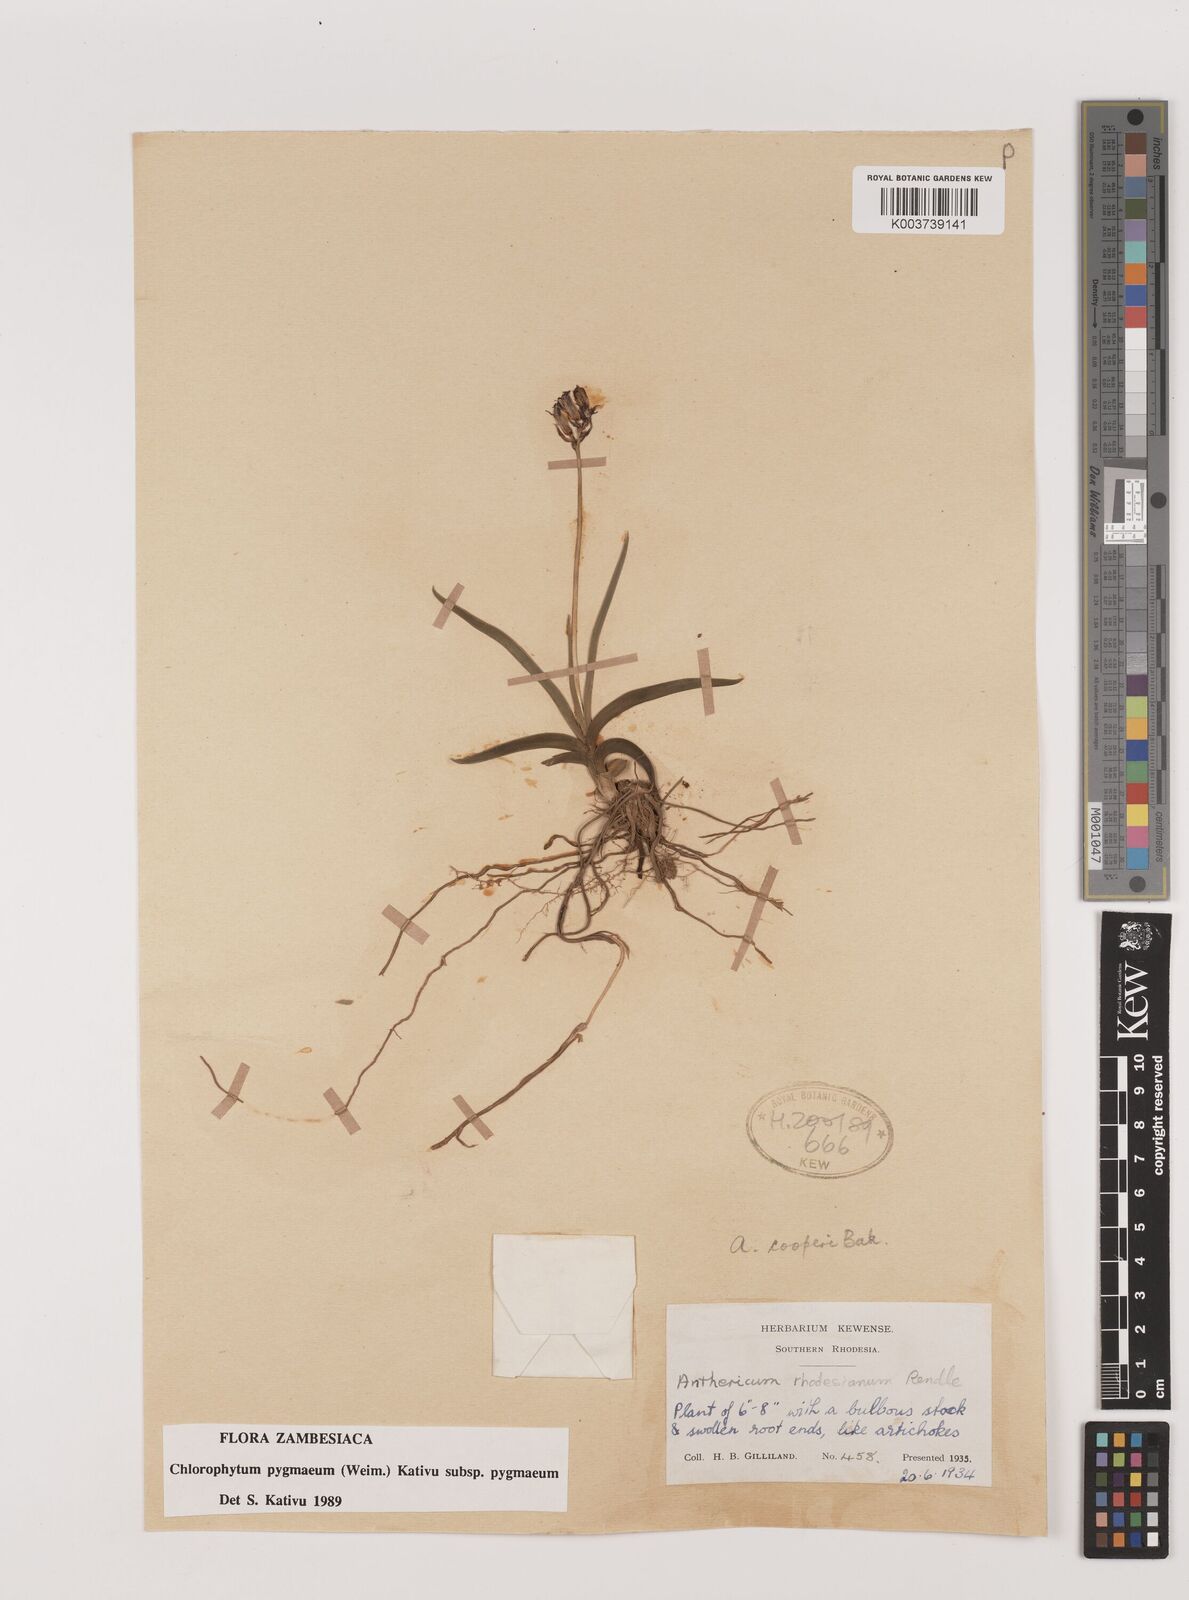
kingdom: Plantae
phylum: Tracheophyta
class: Liliopsida
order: Asparagales
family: Asparagaceae
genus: Chlorophytum
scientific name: Chlorophytum pygmaeum
